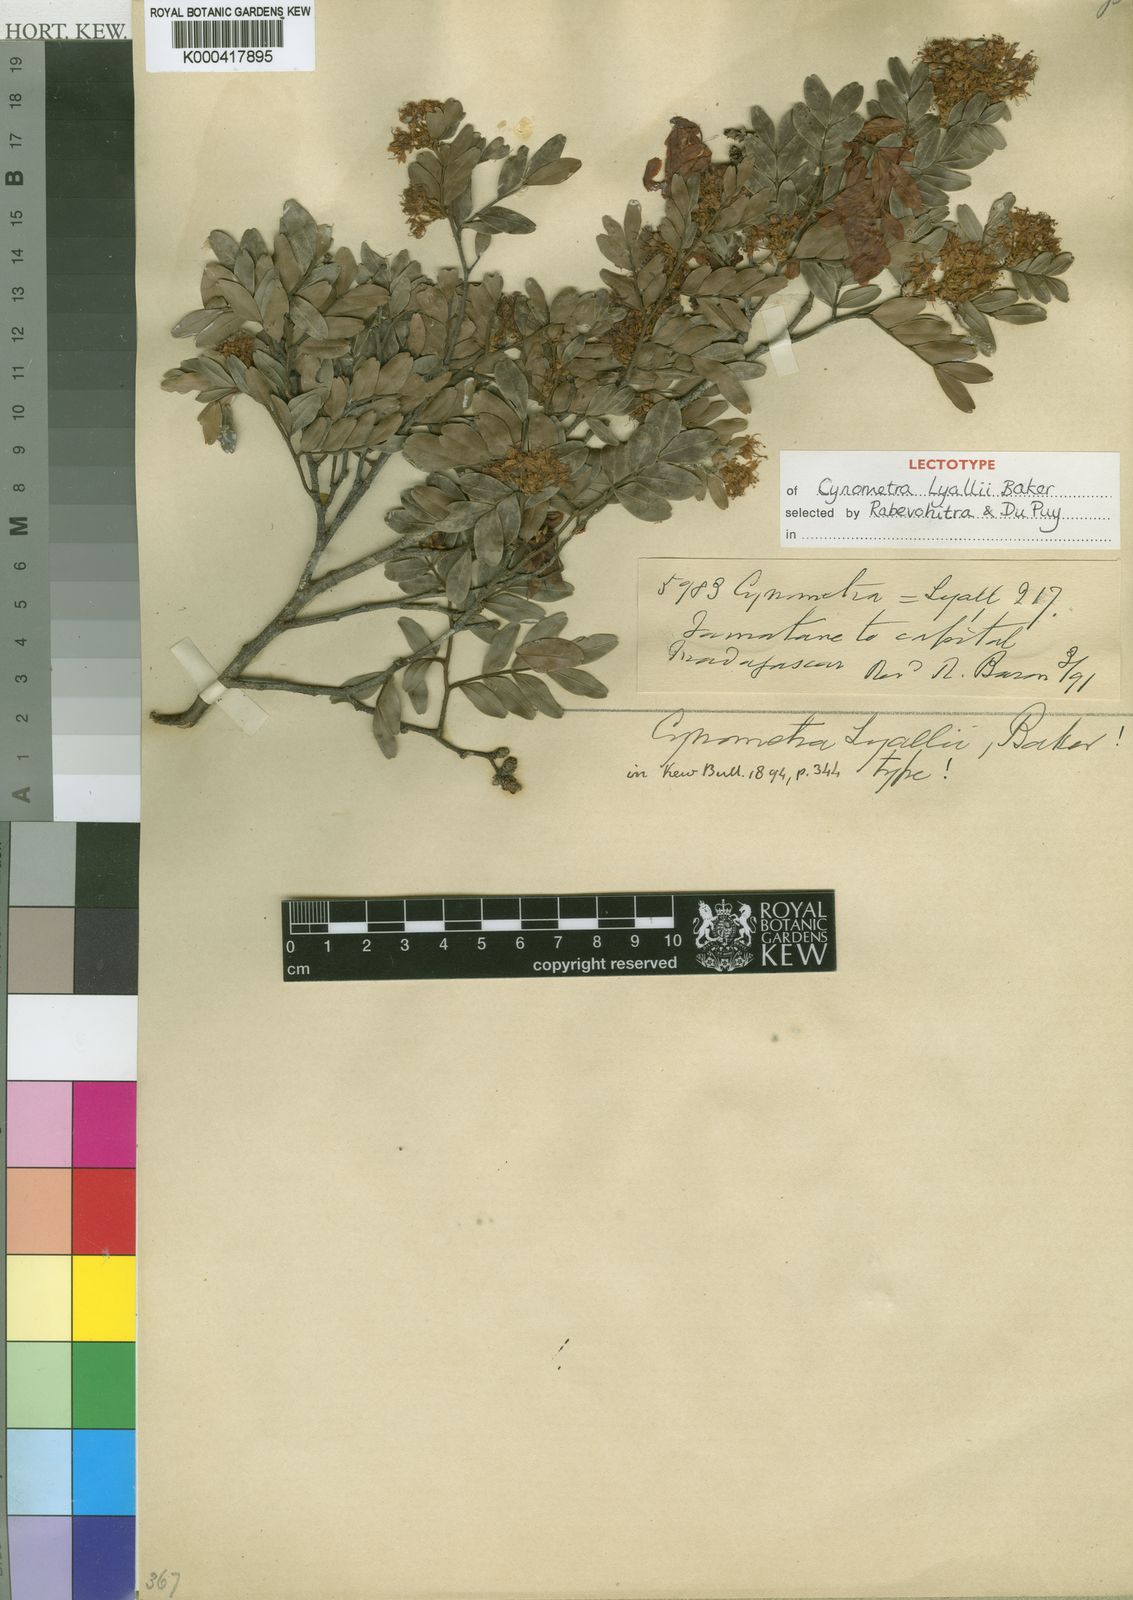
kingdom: Plantae
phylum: Tracheophyta
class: Magnoliopsida
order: Fabales
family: Fabaceae
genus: Cynometra
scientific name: Cynometra lyallii
